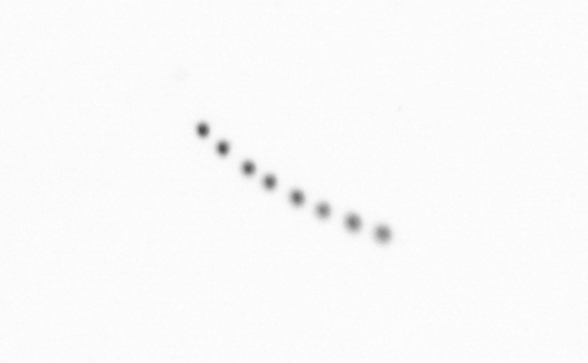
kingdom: Chromista
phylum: Ochrophyta
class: Bacillariophyceae
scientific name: Bacillariophyceae
